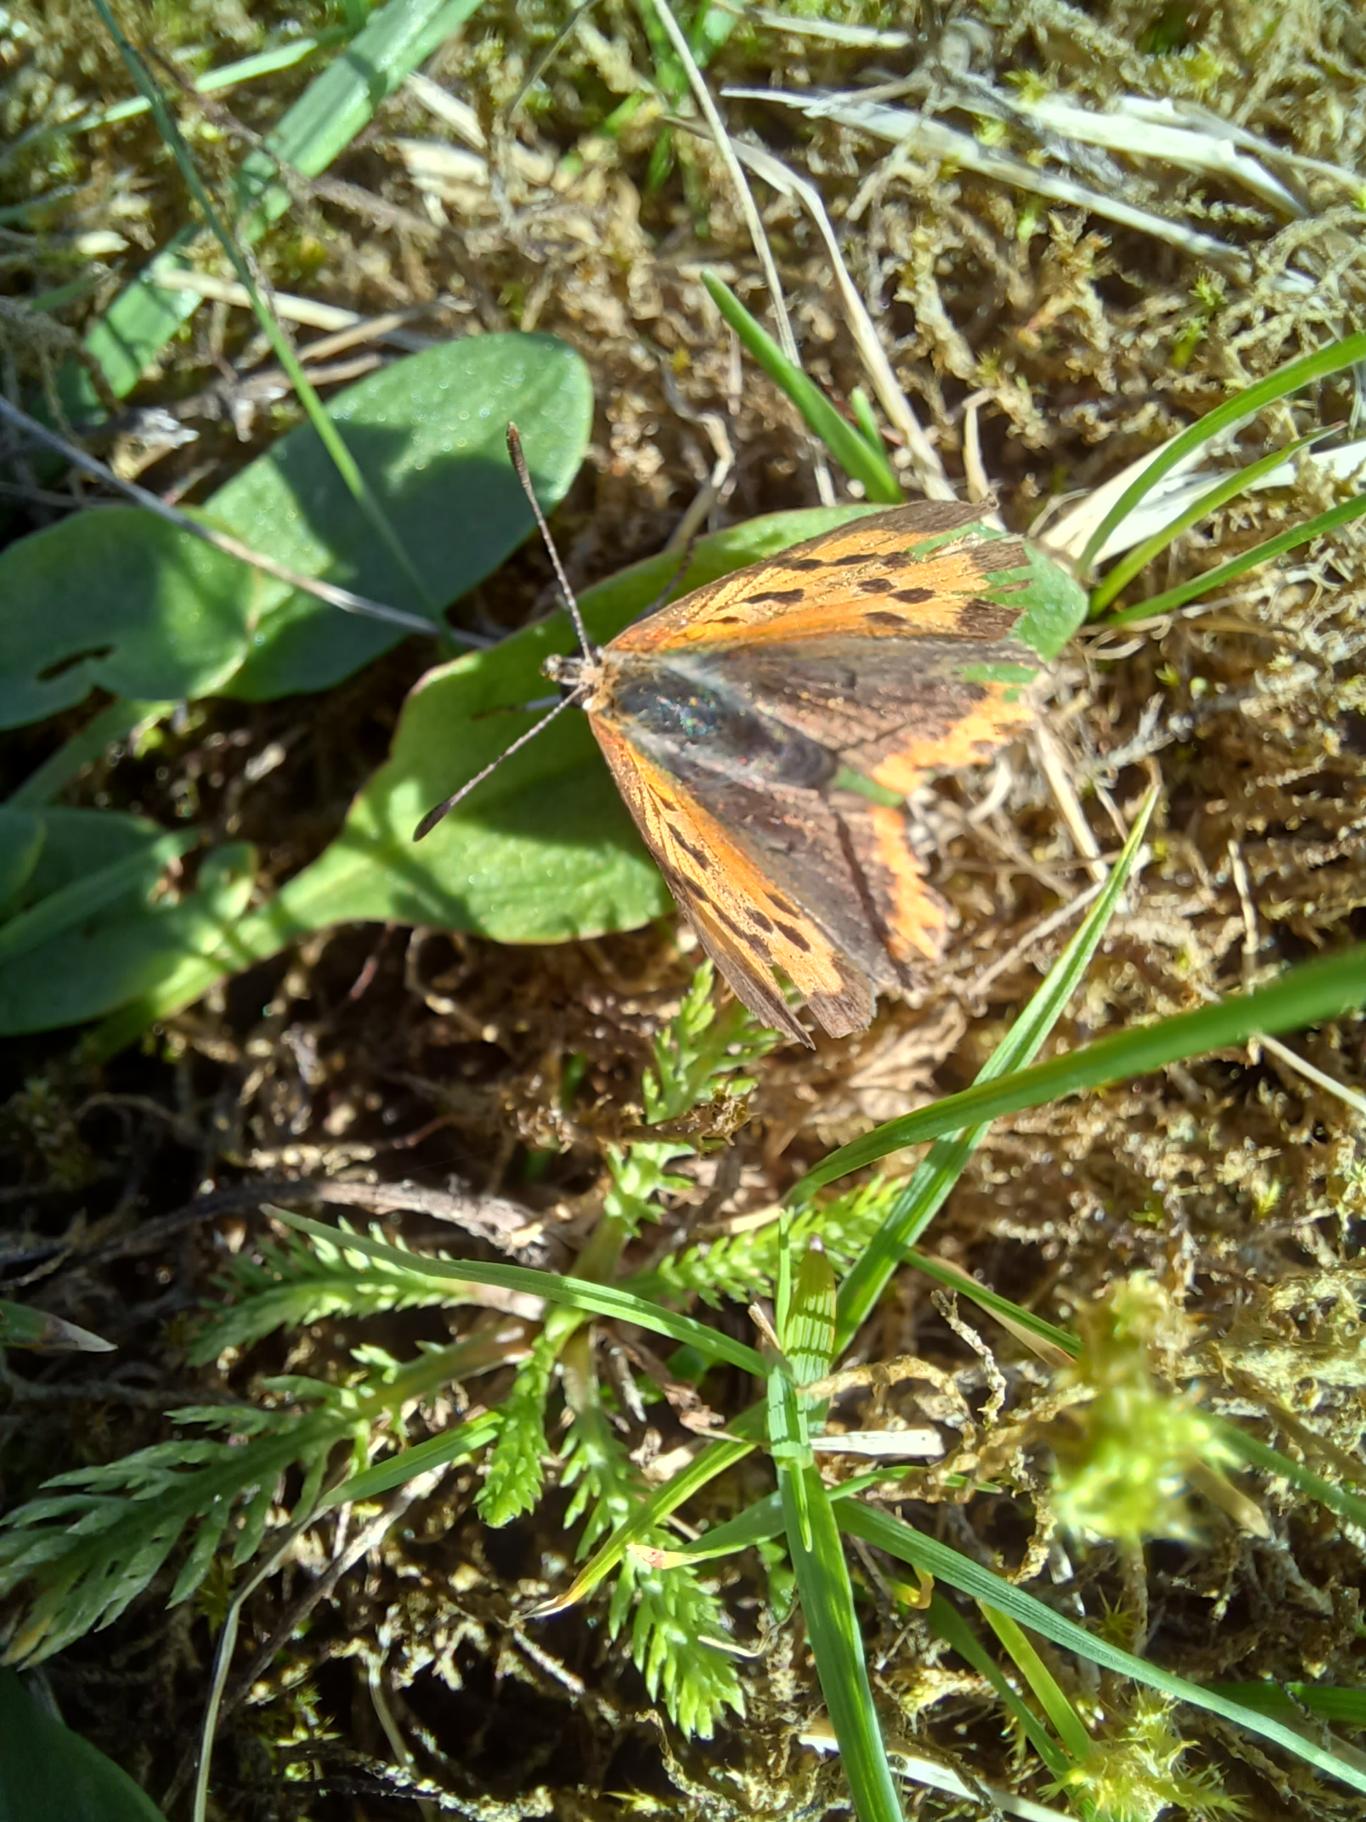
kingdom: Animalia
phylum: Arthropoda
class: Insecta
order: Lepidoptera
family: Lycaenidae
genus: Lycaena
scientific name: Lycaena phlaeas
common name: Lille ildfugl
